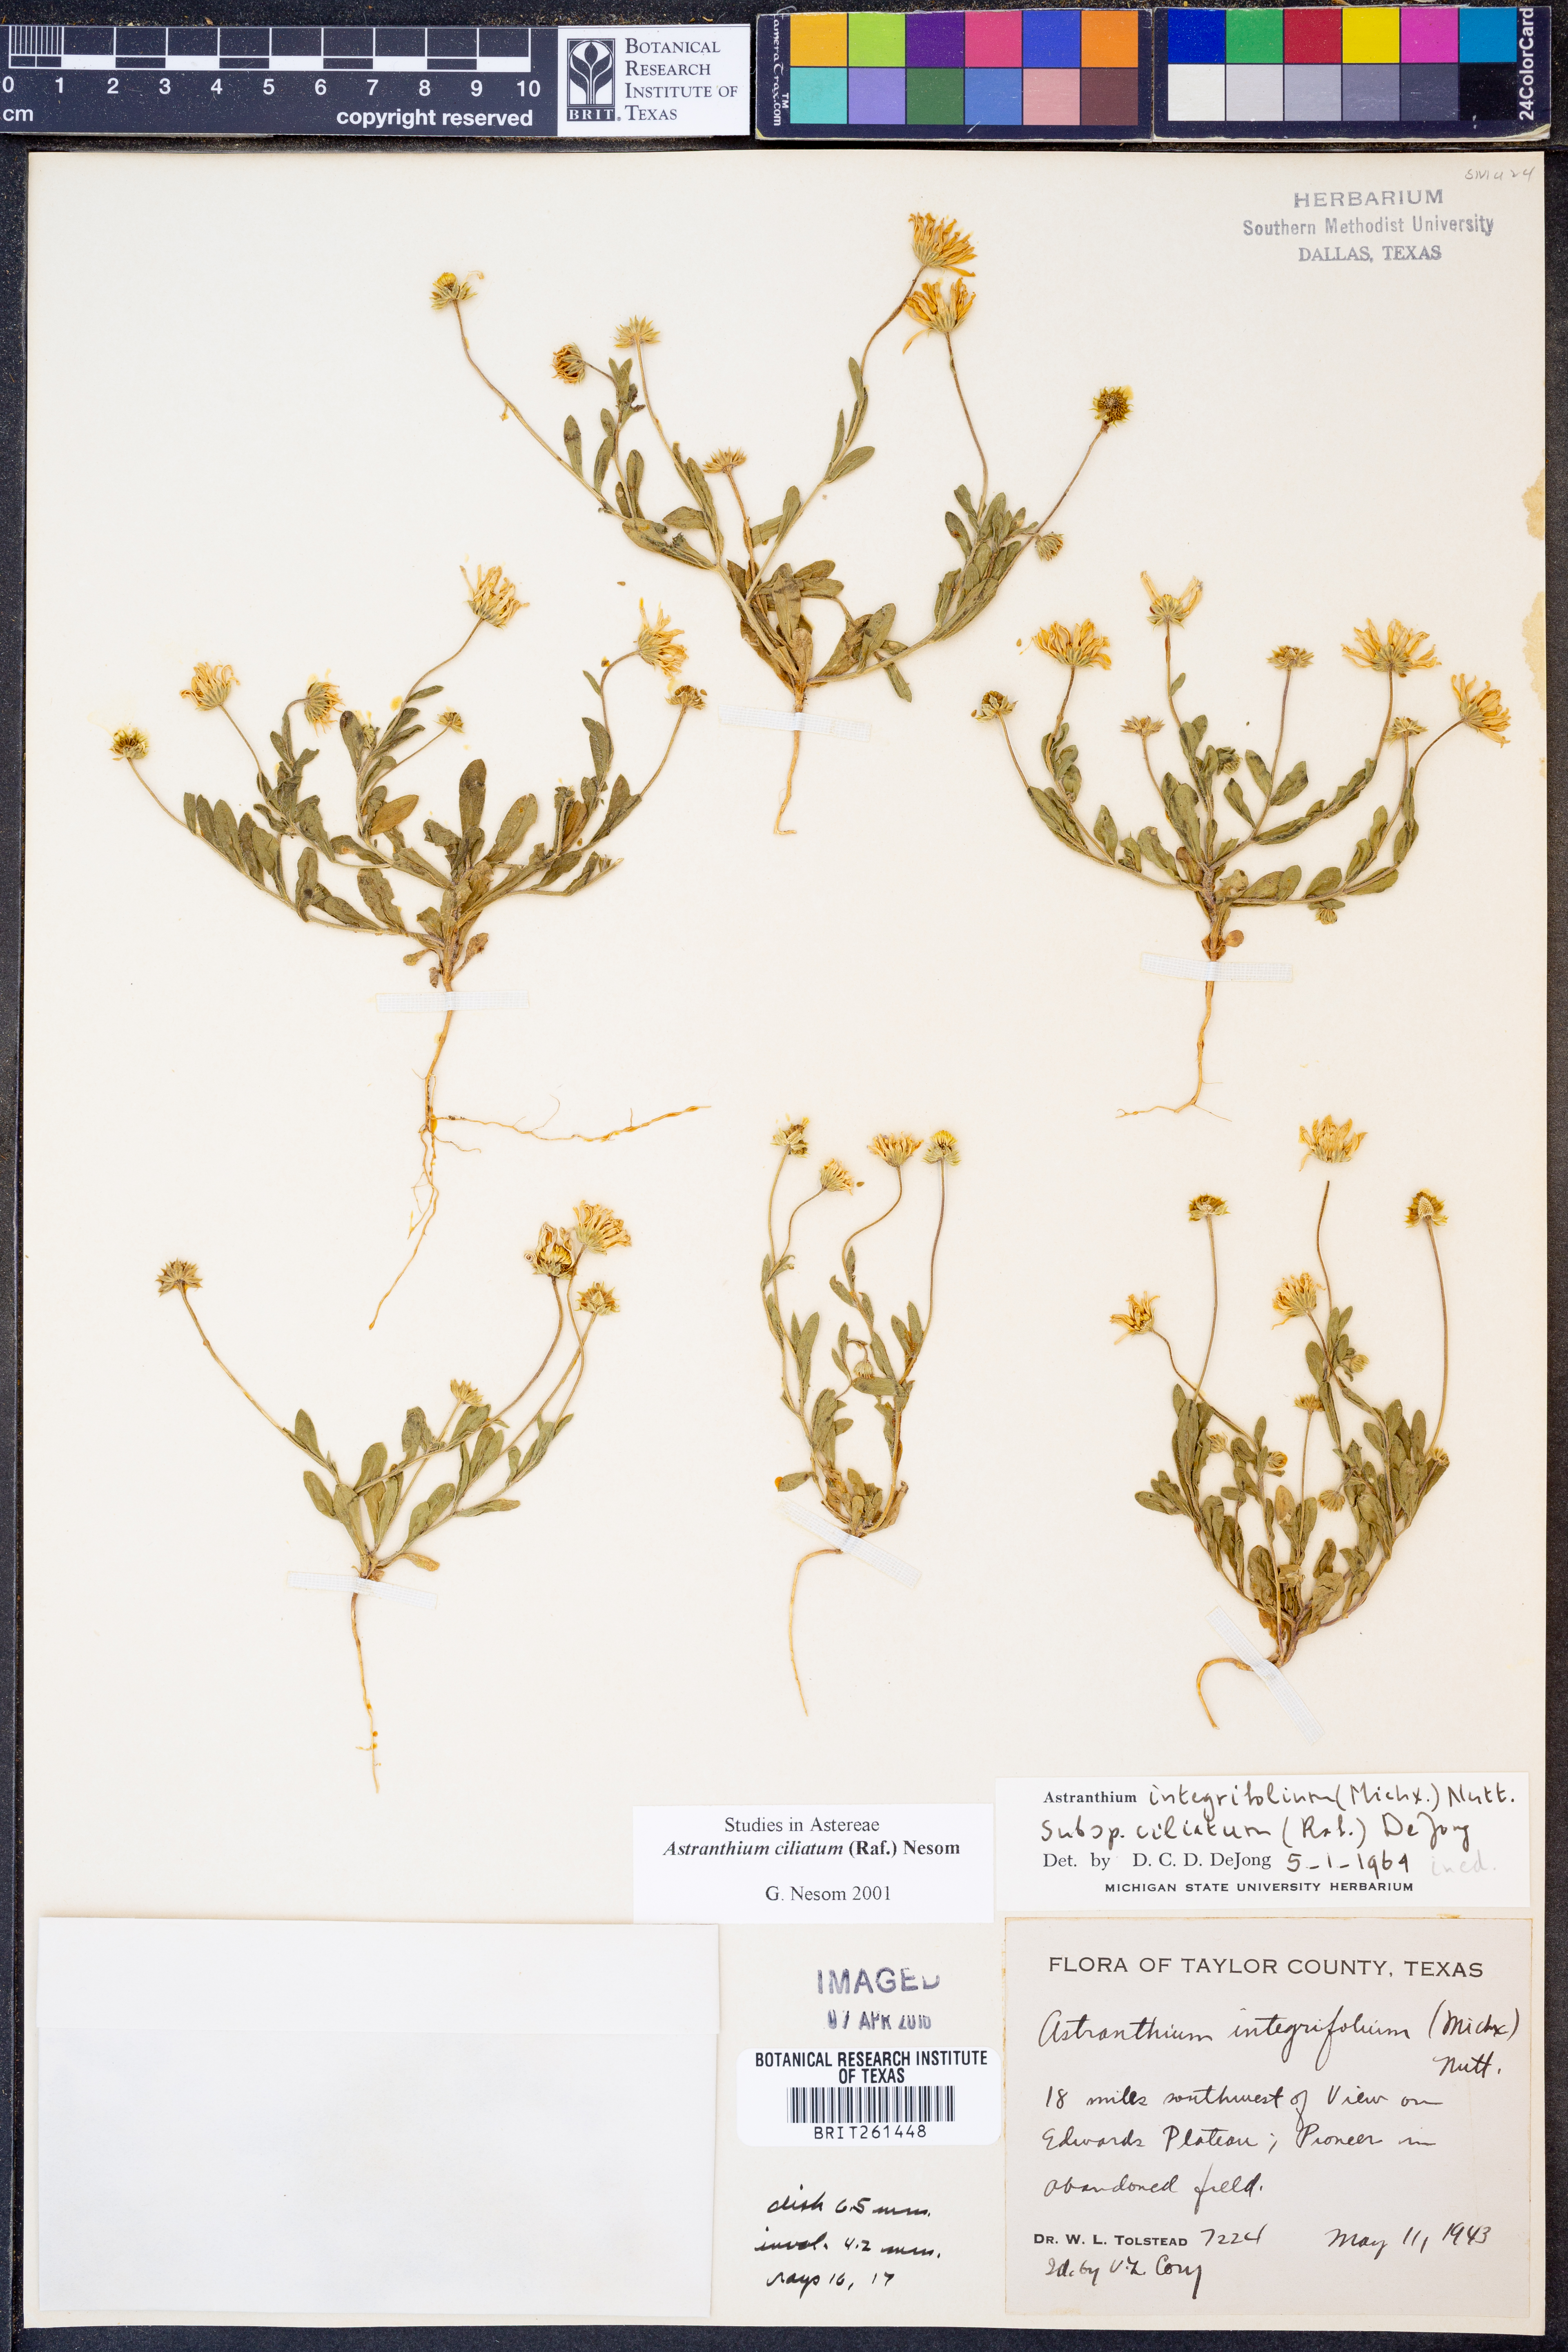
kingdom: Plantae
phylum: Tracheophyta
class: Magnoliopsida
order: Asterales
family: Asteraceae
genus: Astranthium
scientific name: Astranthium ciliatum
